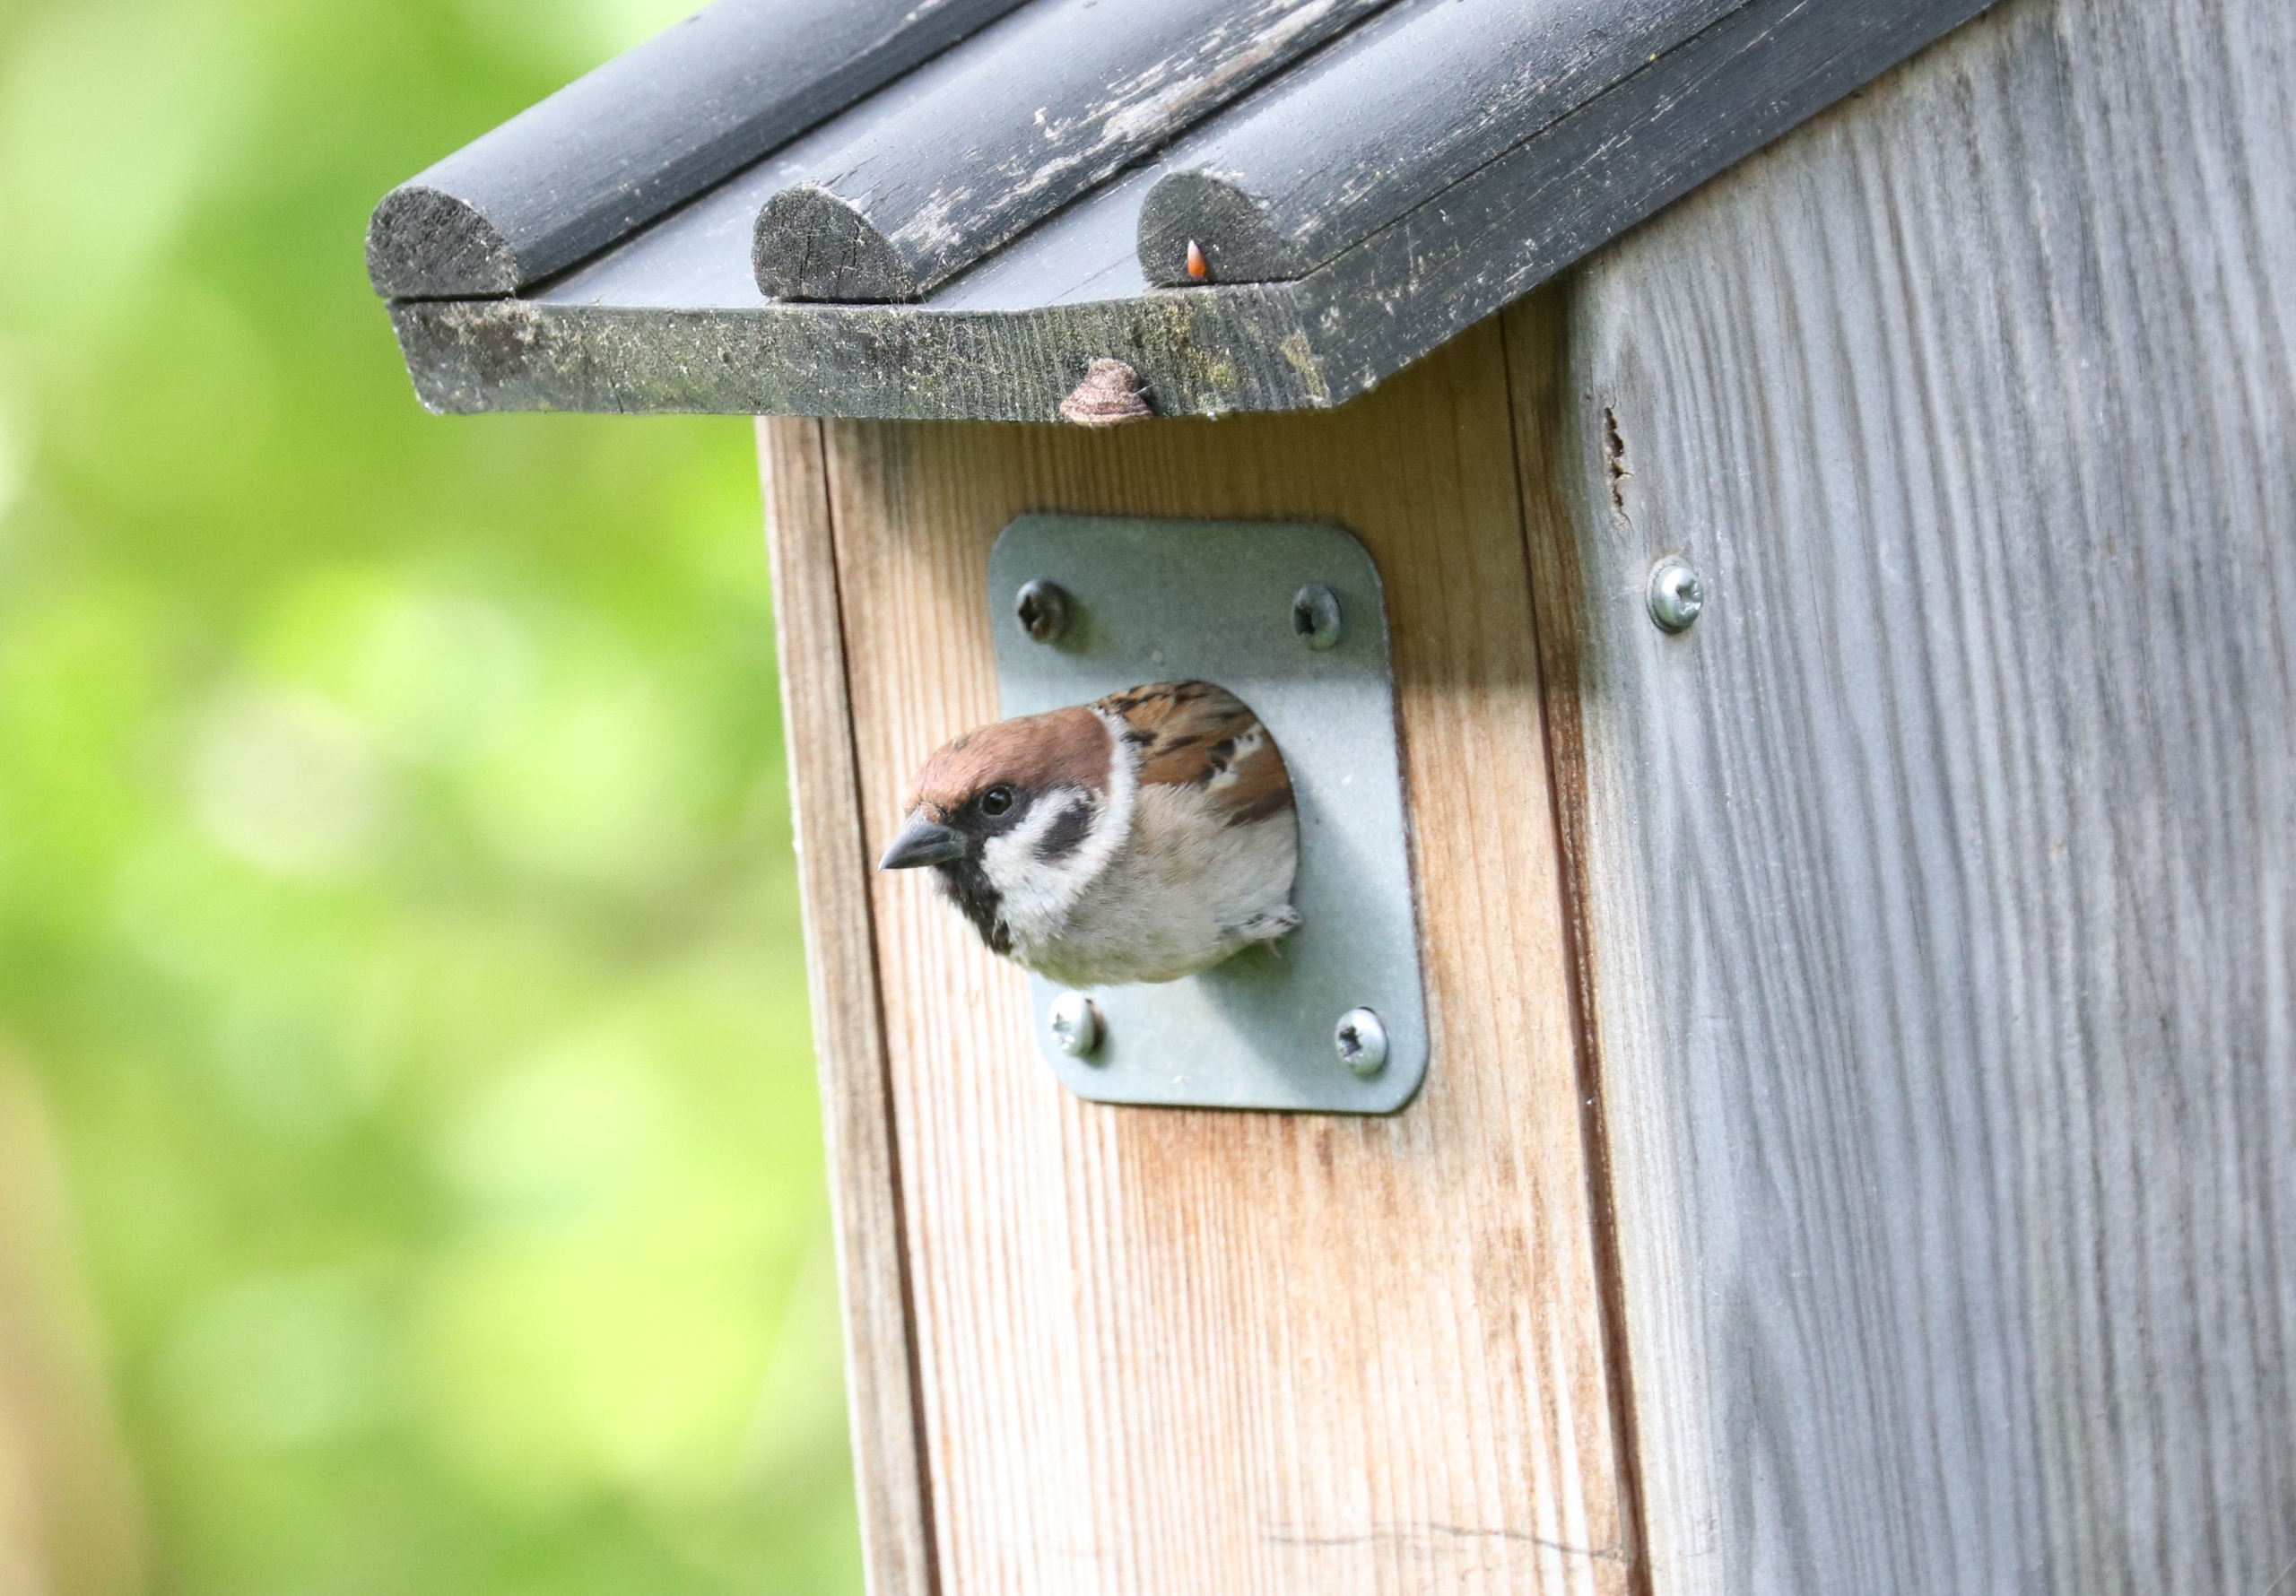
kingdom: Animalia
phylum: Chordata
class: Aves
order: Passeriformes
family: Passeridae
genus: Passer
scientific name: Passer montanus
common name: Skovspurv
